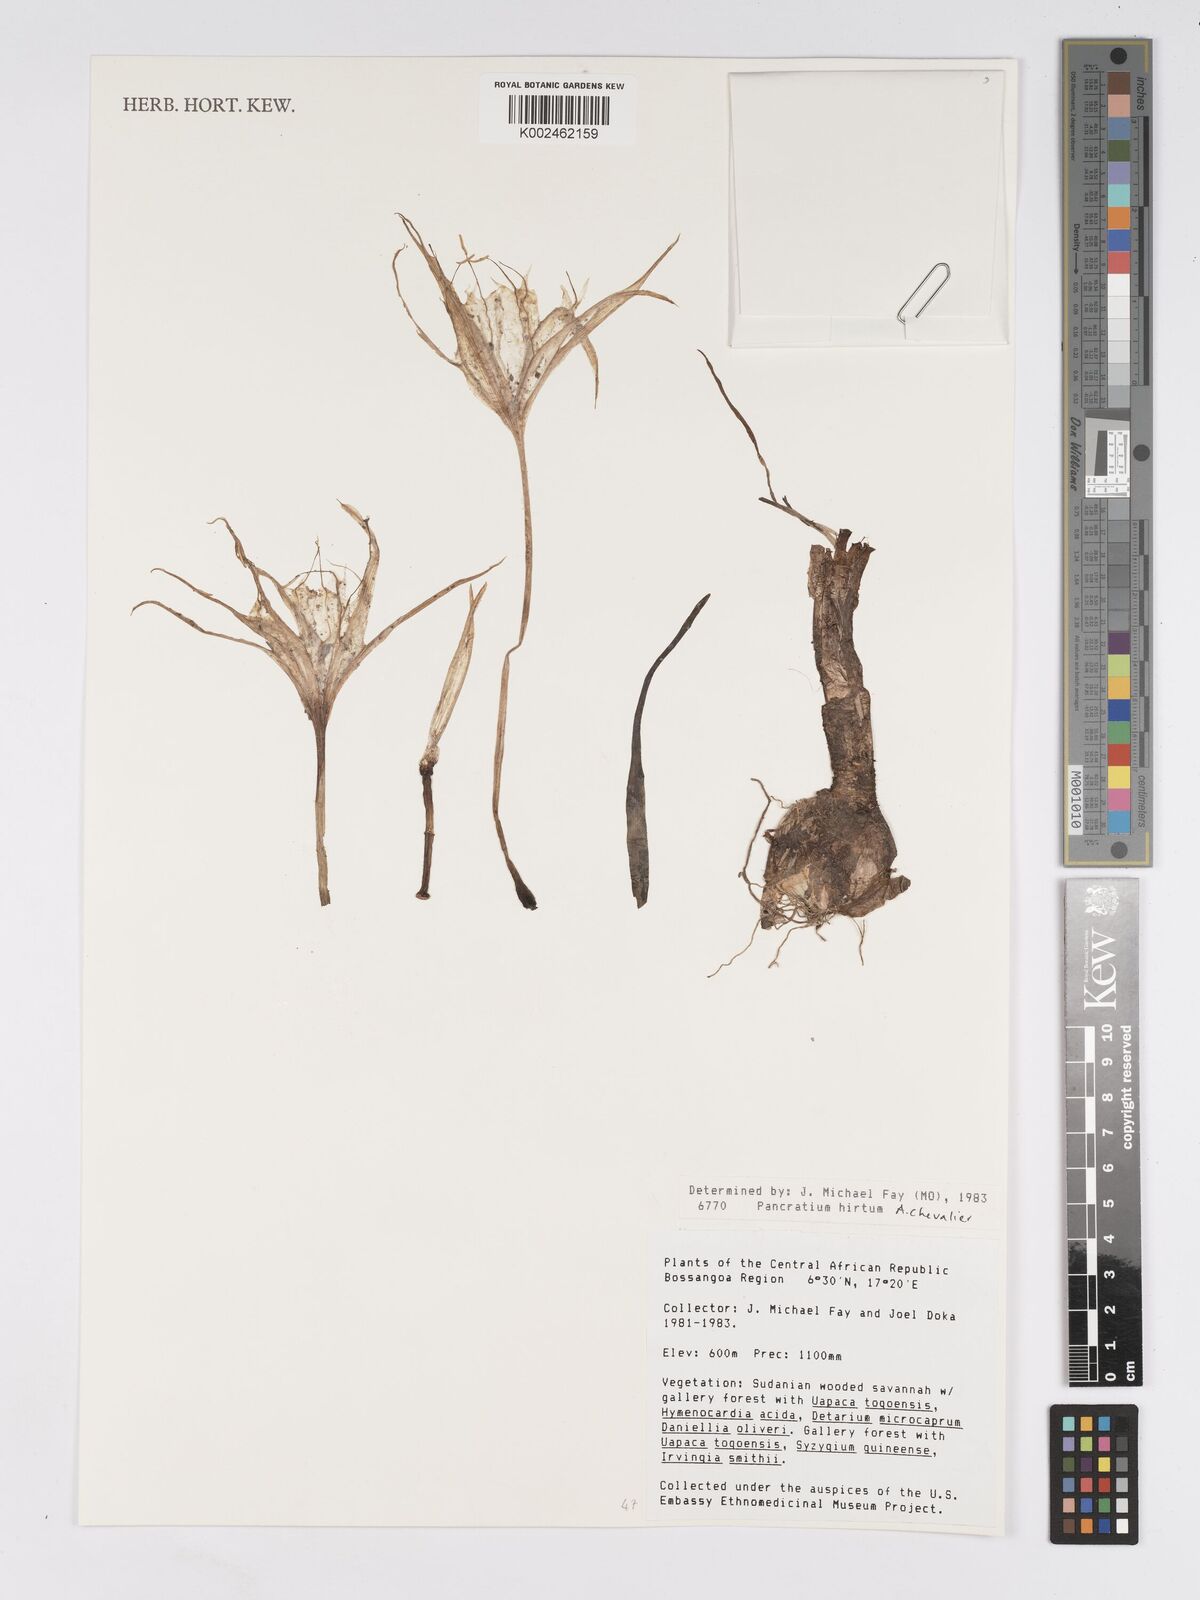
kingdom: Plantae
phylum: Tracheophyta
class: Liliopsida
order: Asparagales
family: Amaryllidaceae
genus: Pancratium
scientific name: Pancratium tenuifolium
